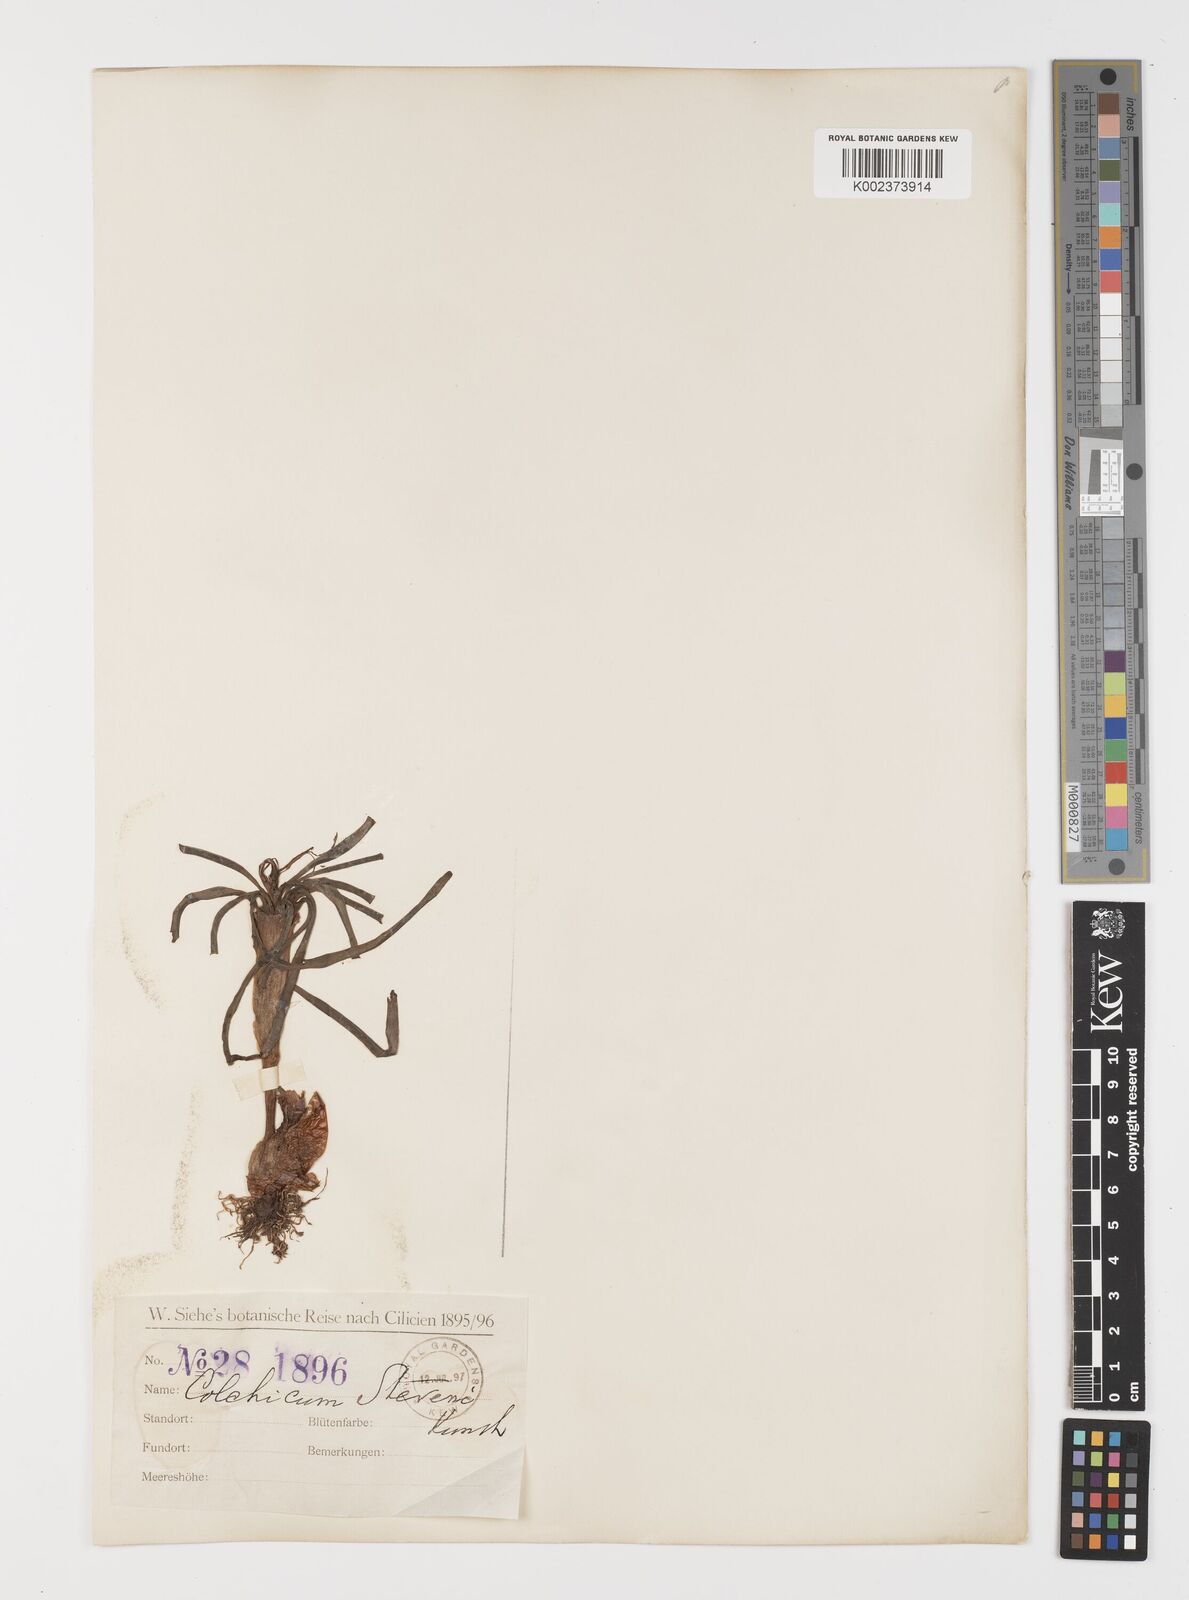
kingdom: Plantae
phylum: Tracheophyta
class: Liliopsida
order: Liliales
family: Colchicaceae
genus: Colchicum
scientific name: Colchicum stevenii
